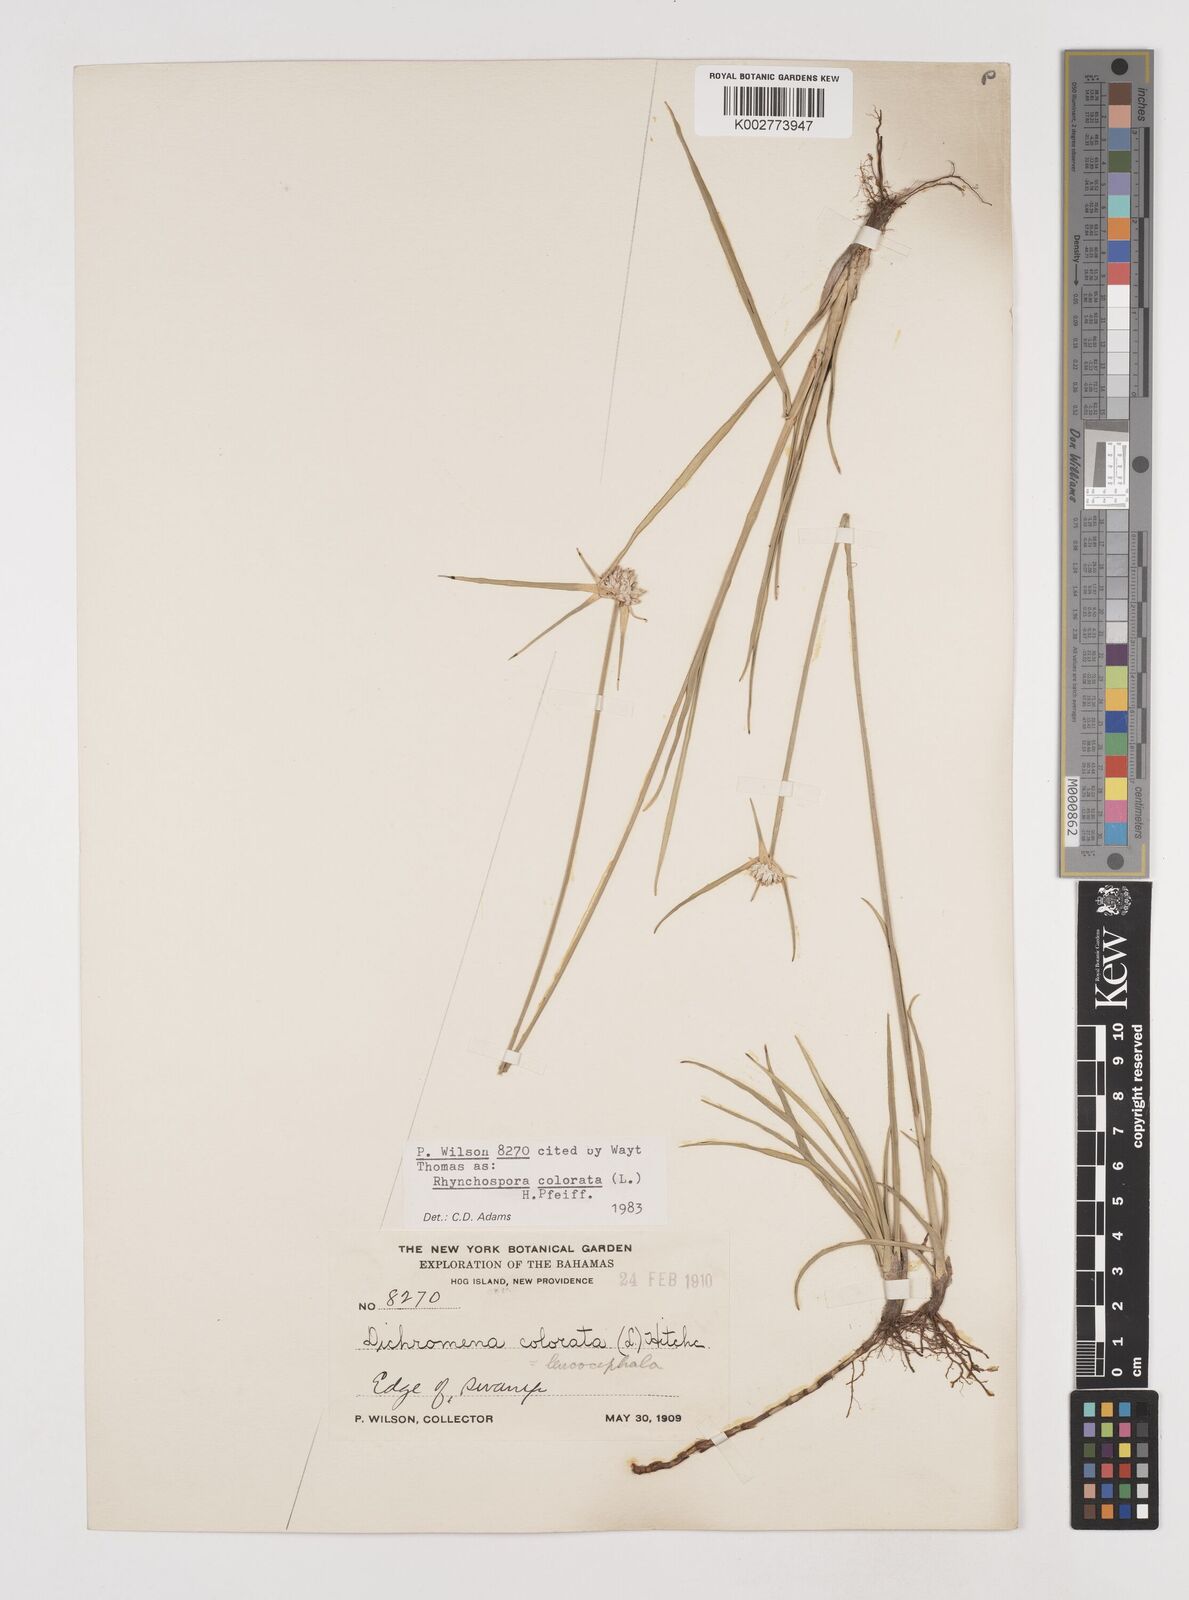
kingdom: Plantae
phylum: Tracheophyta
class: Liliopsida
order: Poales
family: Cyperaceae
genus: Rhynchospora
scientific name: Rhynchospora colorata
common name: Star sedge
